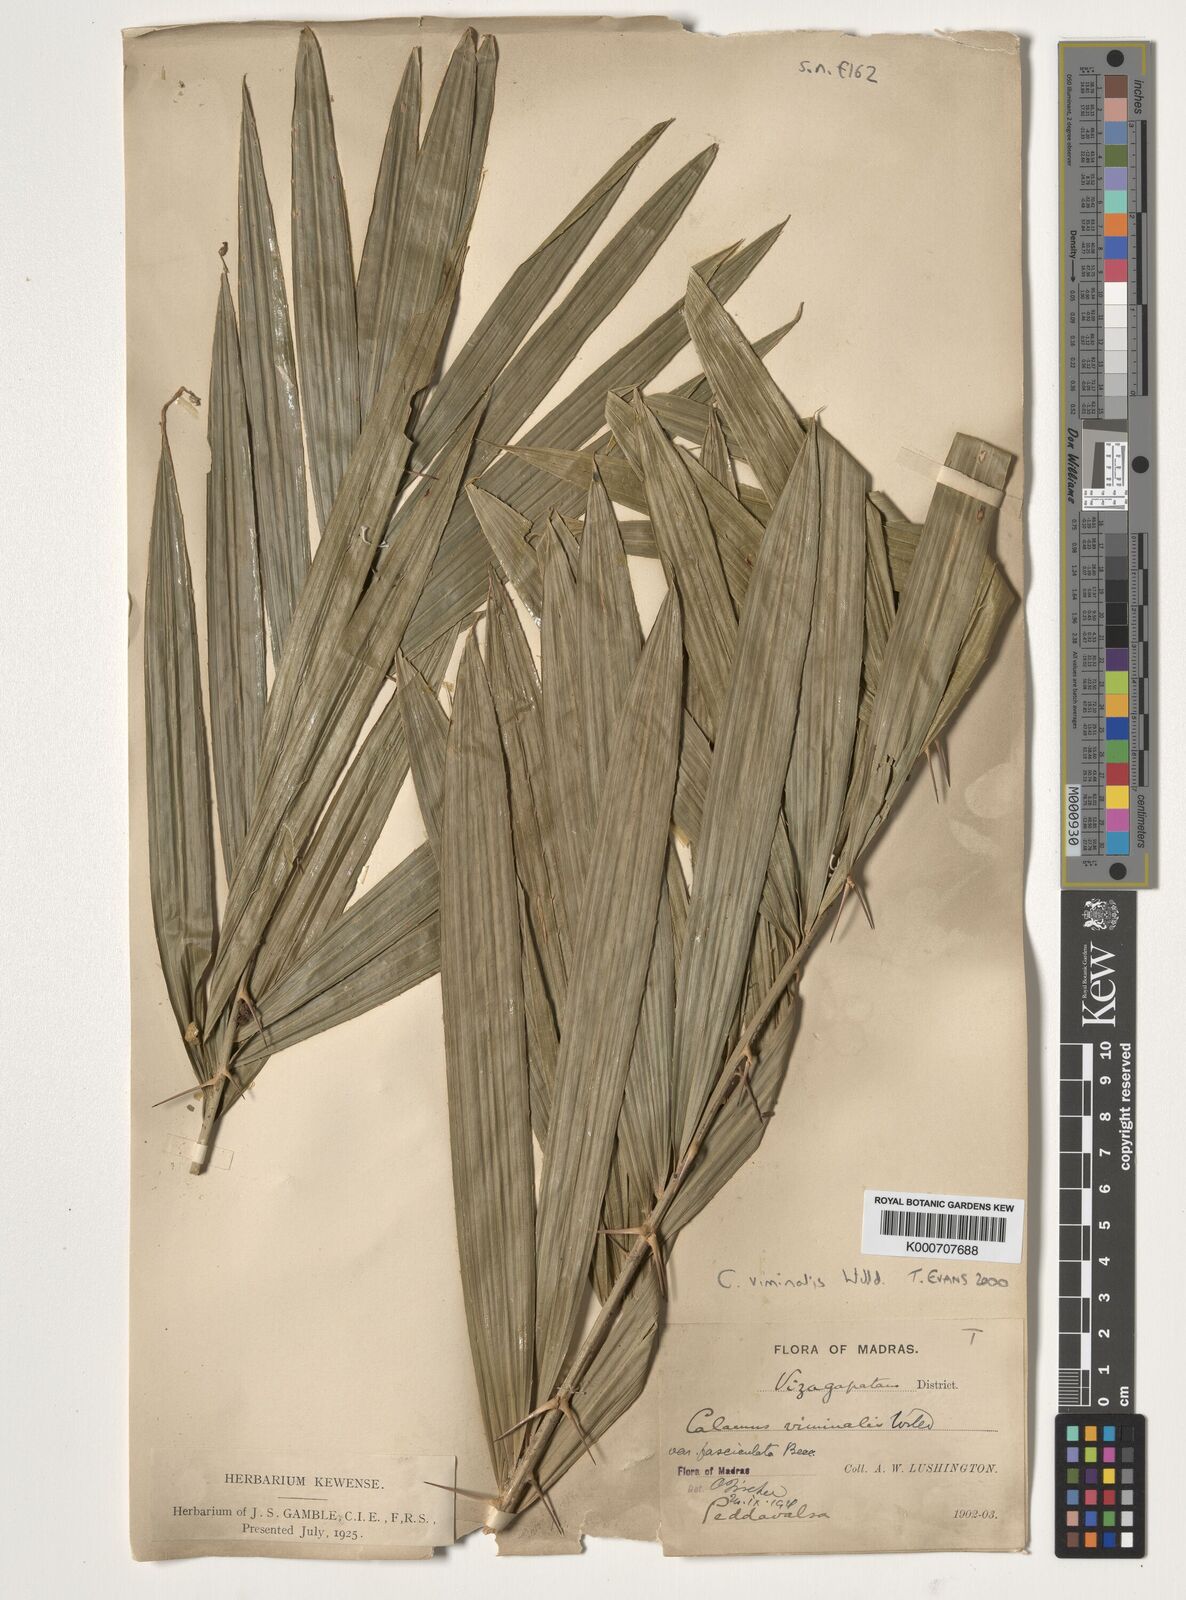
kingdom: Plantae
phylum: Tracheophyta
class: Liliopsida
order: Arecales
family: Arecaceae
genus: Calamus
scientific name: Calamus viminalis
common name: Osier-like rattan palm
